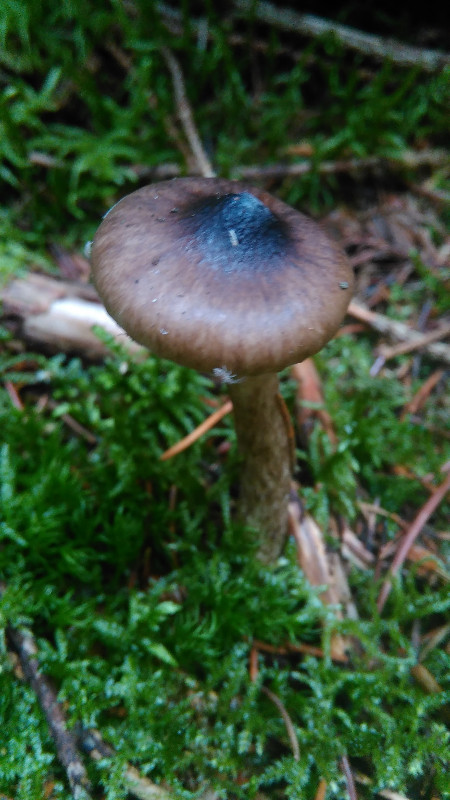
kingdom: Fungi
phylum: Basidiomycota
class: Agaricomycetes
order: Agaricales
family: Hygrophoraceae
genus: Hygrophorus
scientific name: Hygrophorus olivaceoalbus
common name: hvidbrun sneglehat
